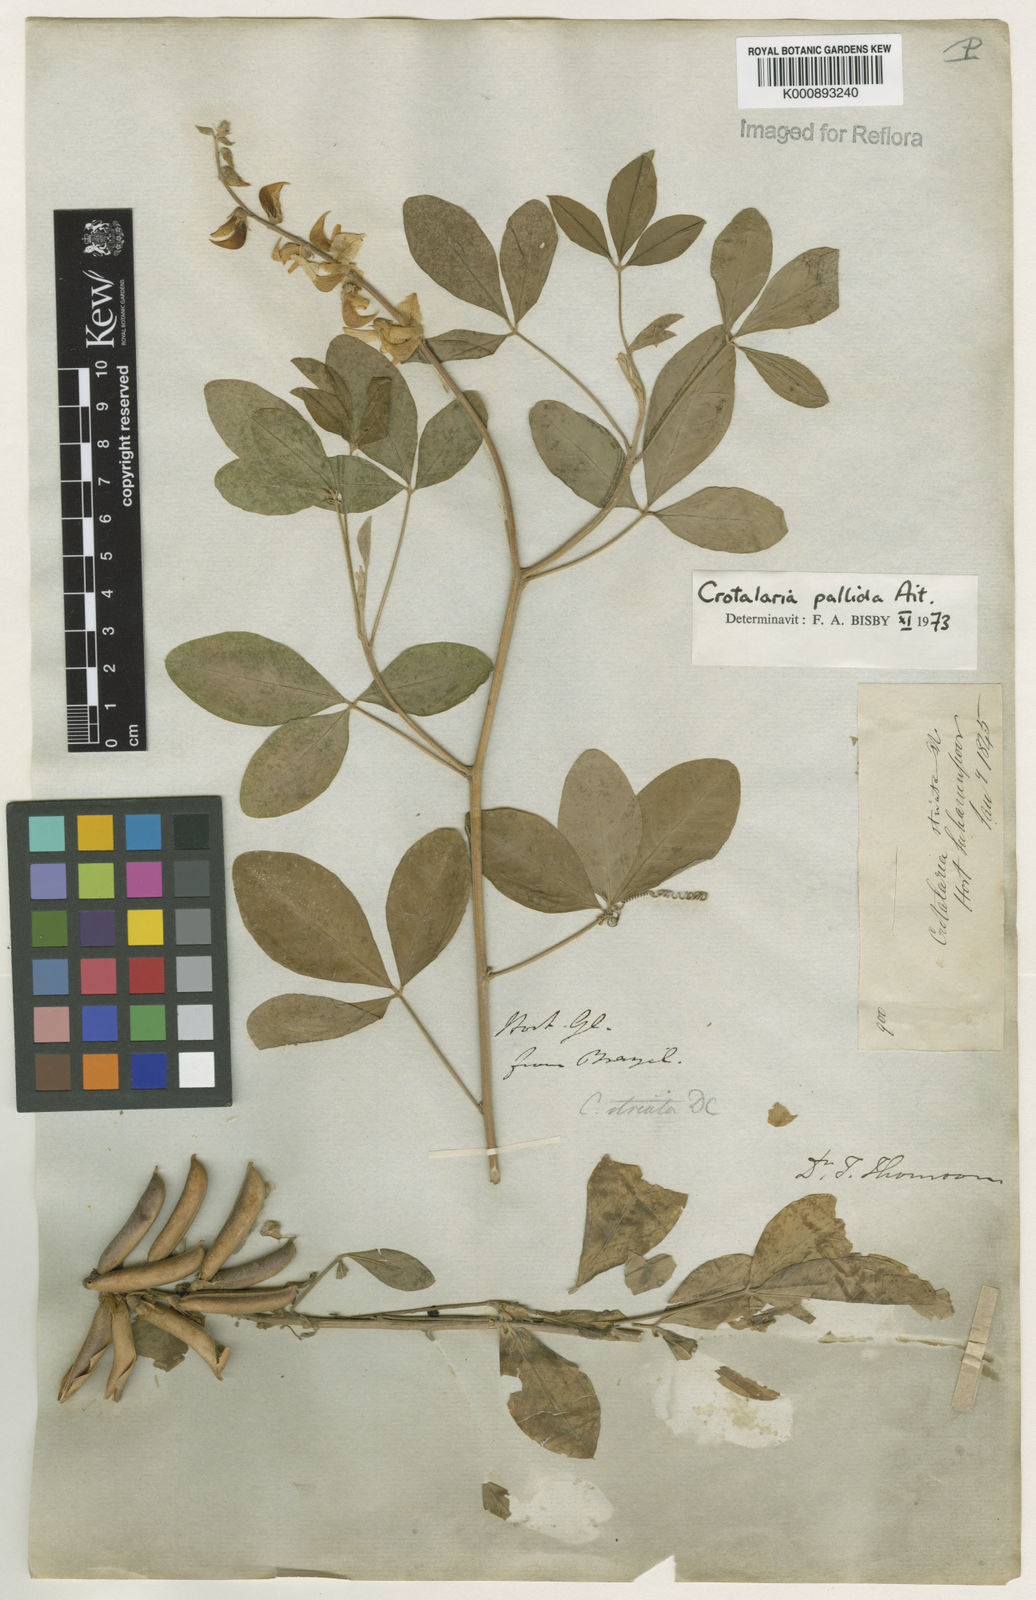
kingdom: Plantae
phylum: Tracheophyta
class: Magnoliopsida
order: Fabales
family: Fabaceae
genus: Crotalaria
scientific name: Crotalaria pallida
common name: Smooth rattlebox
